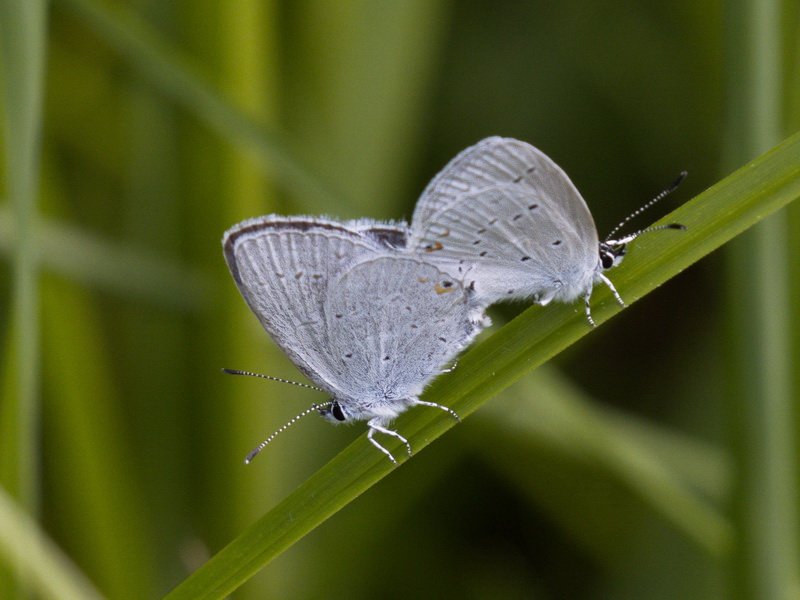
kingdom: Animalia
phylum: Arthropoda
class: Insecta
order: Lepidoptera
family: Lycaenidae
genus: Elkalyce
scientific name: Elkalyce amyntula
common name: Western Tailed-Blue
